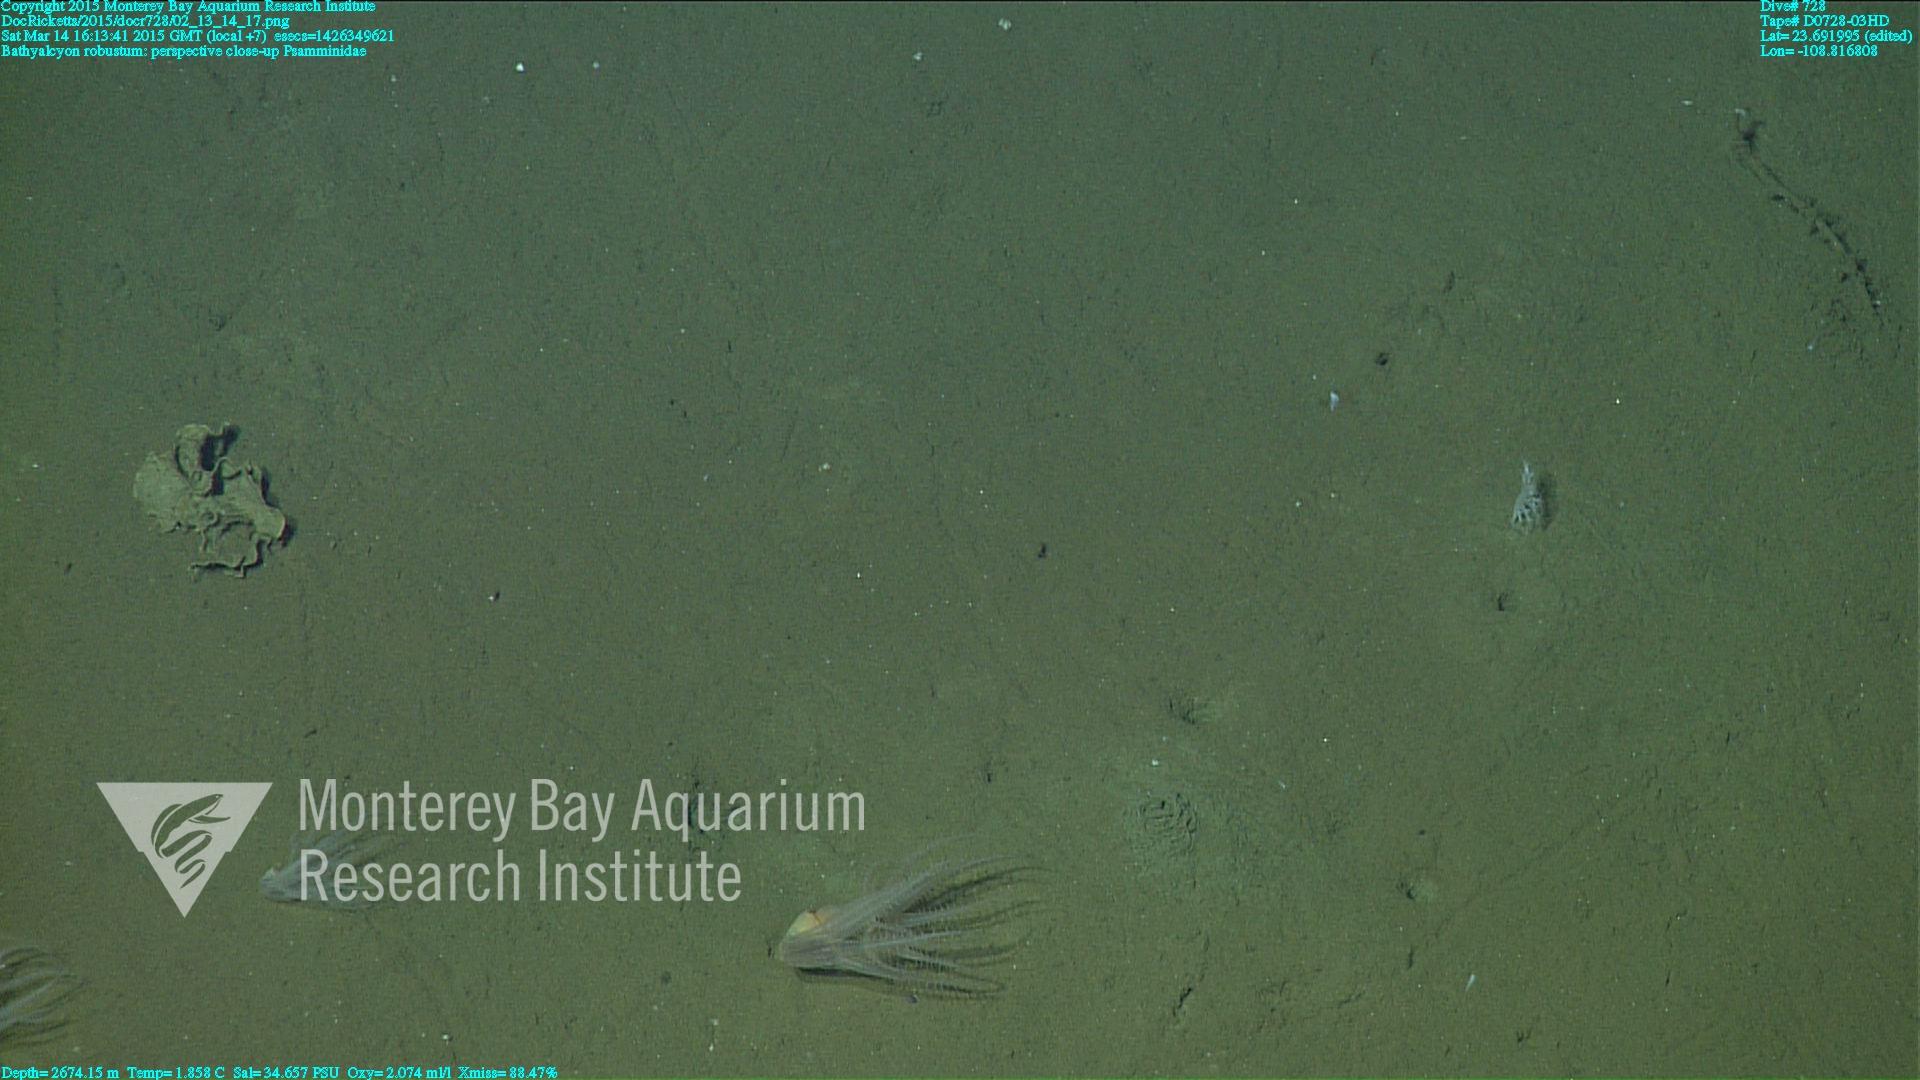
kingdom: Animalia
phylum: Cnidaria
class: Anthozoa
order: Scleralcyonacea
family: Coralliidae
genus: Bathyalcyon
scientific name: Bathyalcyon robustum
